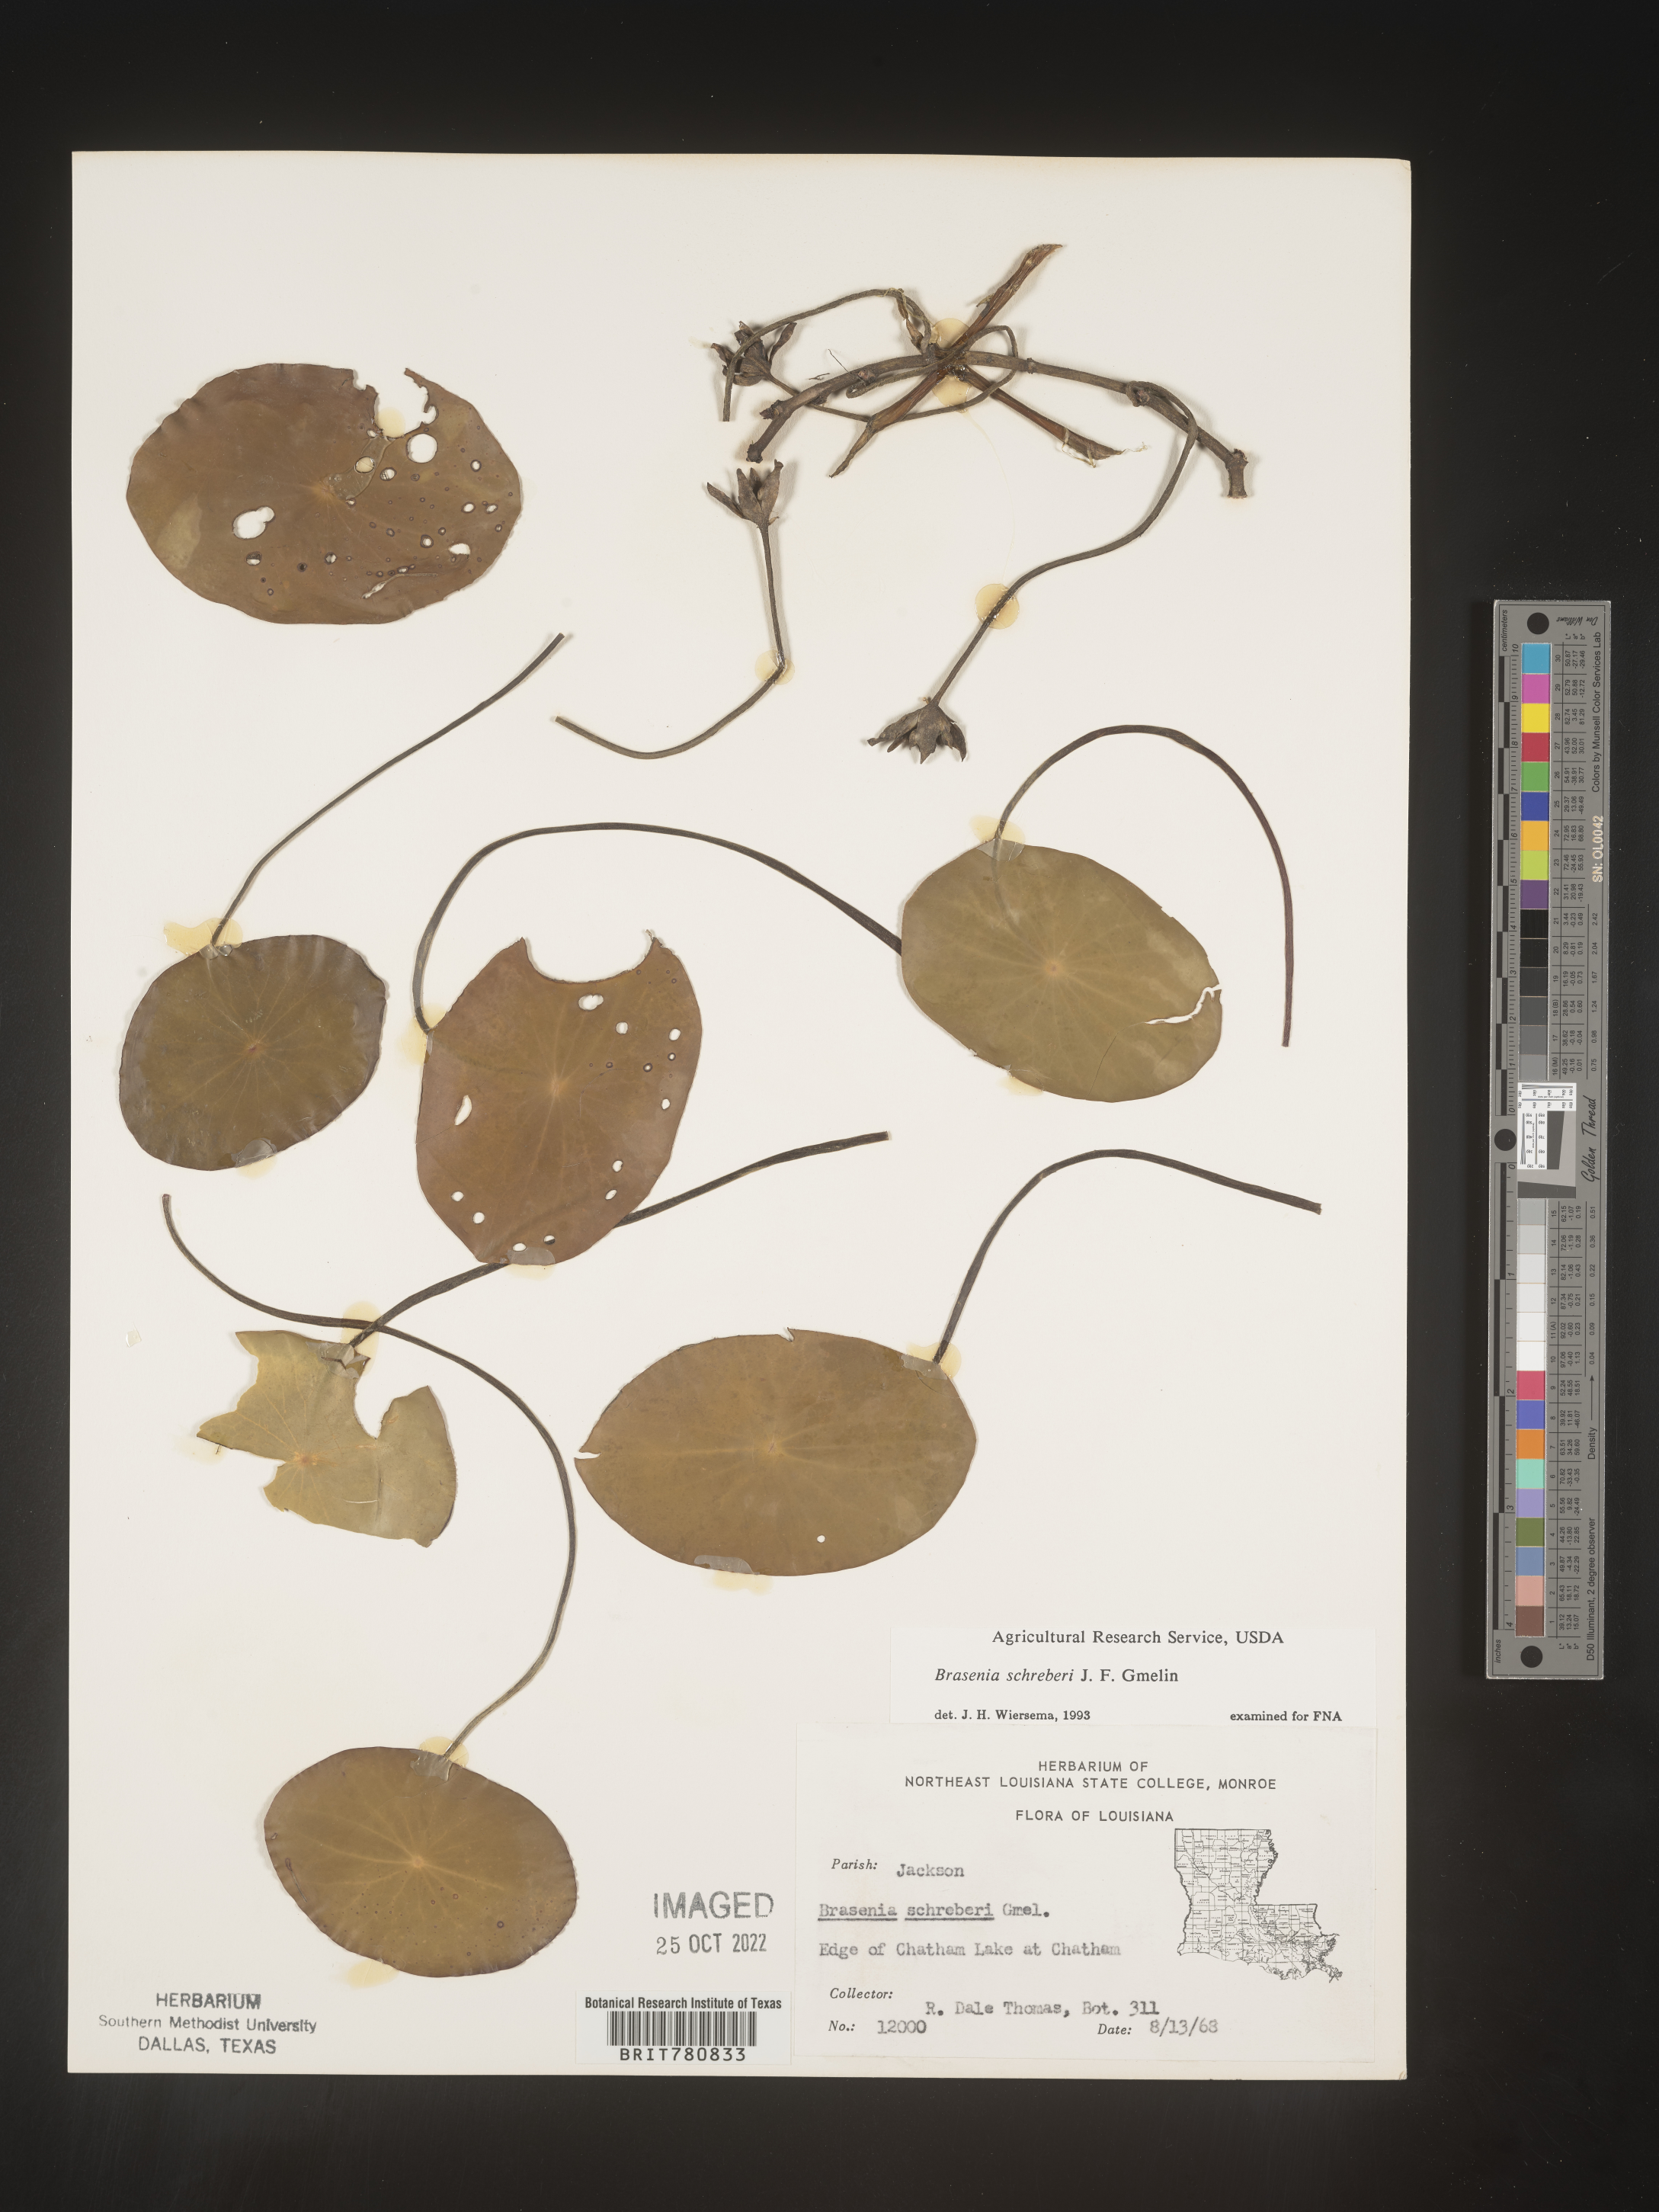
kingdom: Plantae
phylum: Tracheophyta
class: Magnoliopsida
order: Nymphaeales
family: Cabombaceae
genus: Brasenia
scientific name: Brasenia schreberi
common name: Water-shield
